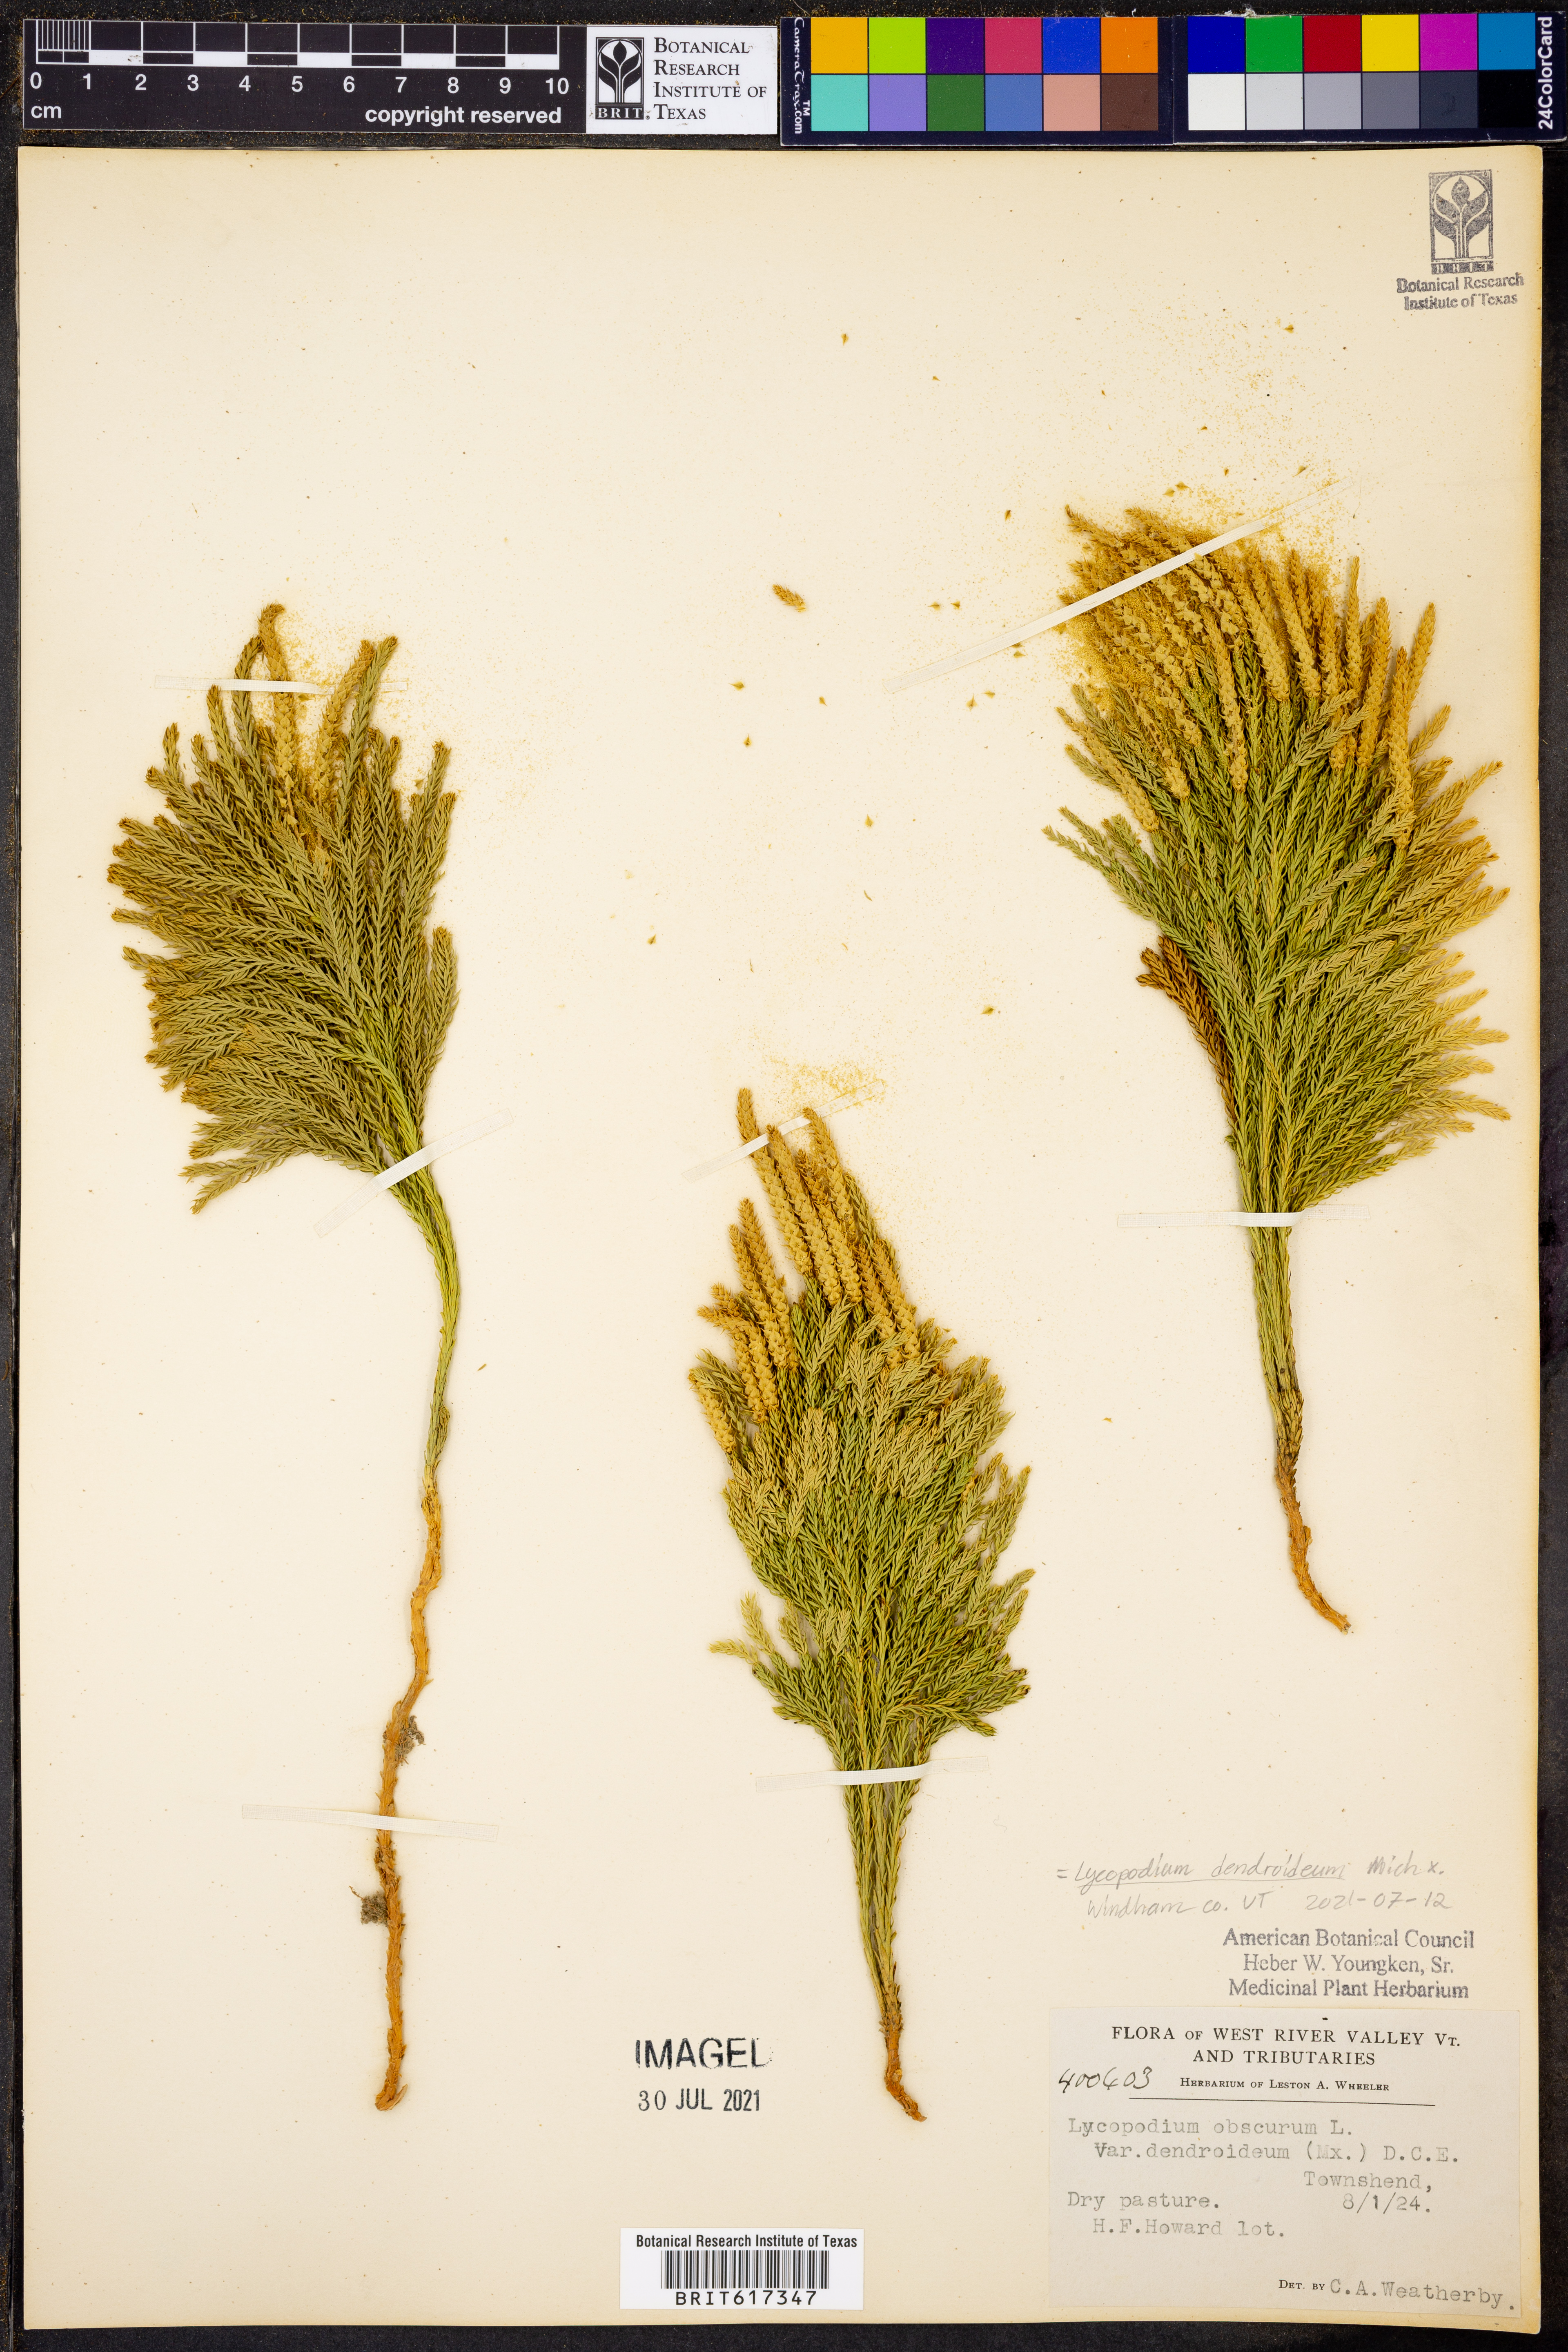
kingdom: Plantae
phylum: Tracheophyta
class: Lycopodiopsida
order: Lycopodiales
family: Lycopodiaceae
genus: Dendrolycopodium
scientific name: Dendrolycopodium dendroideum
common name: Northern tree-clubmoss
